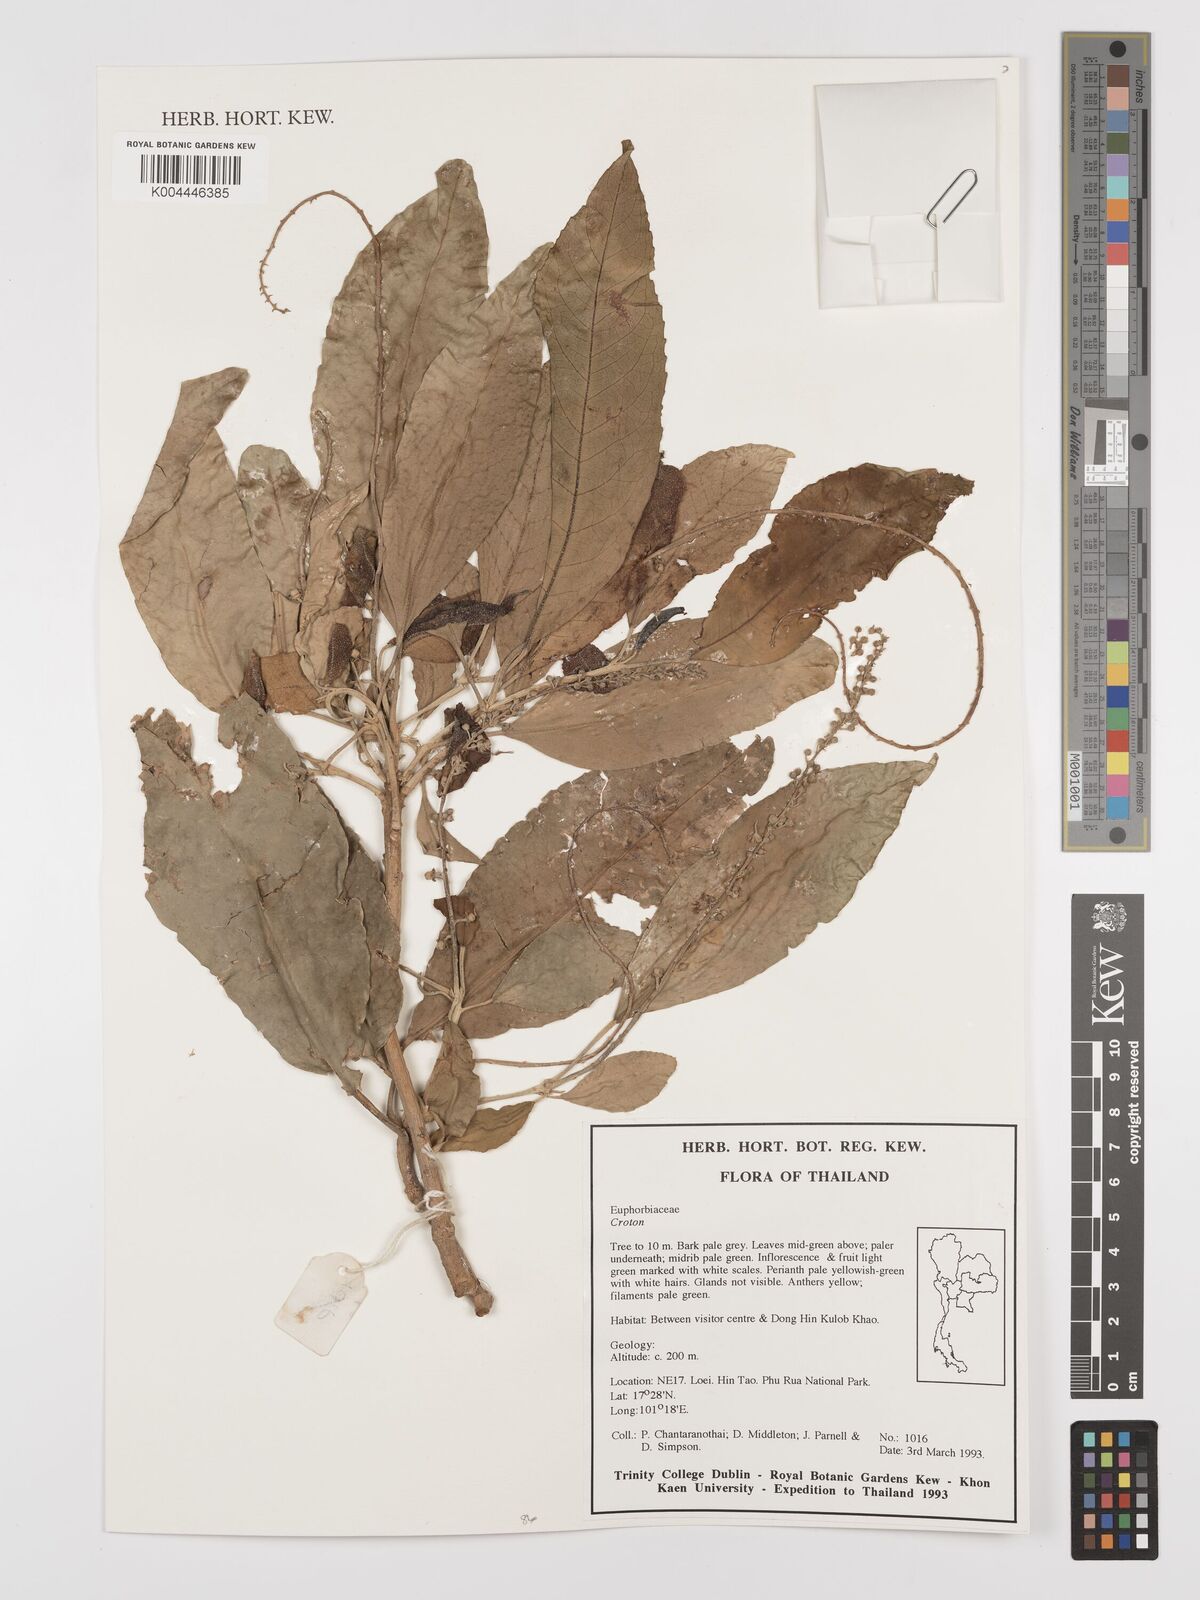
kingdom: Plantae
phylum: Tracheophyta
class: Magnoliopsida
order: Malpighiales
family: Euphorbiaceae
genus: Croton
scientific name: Croton
